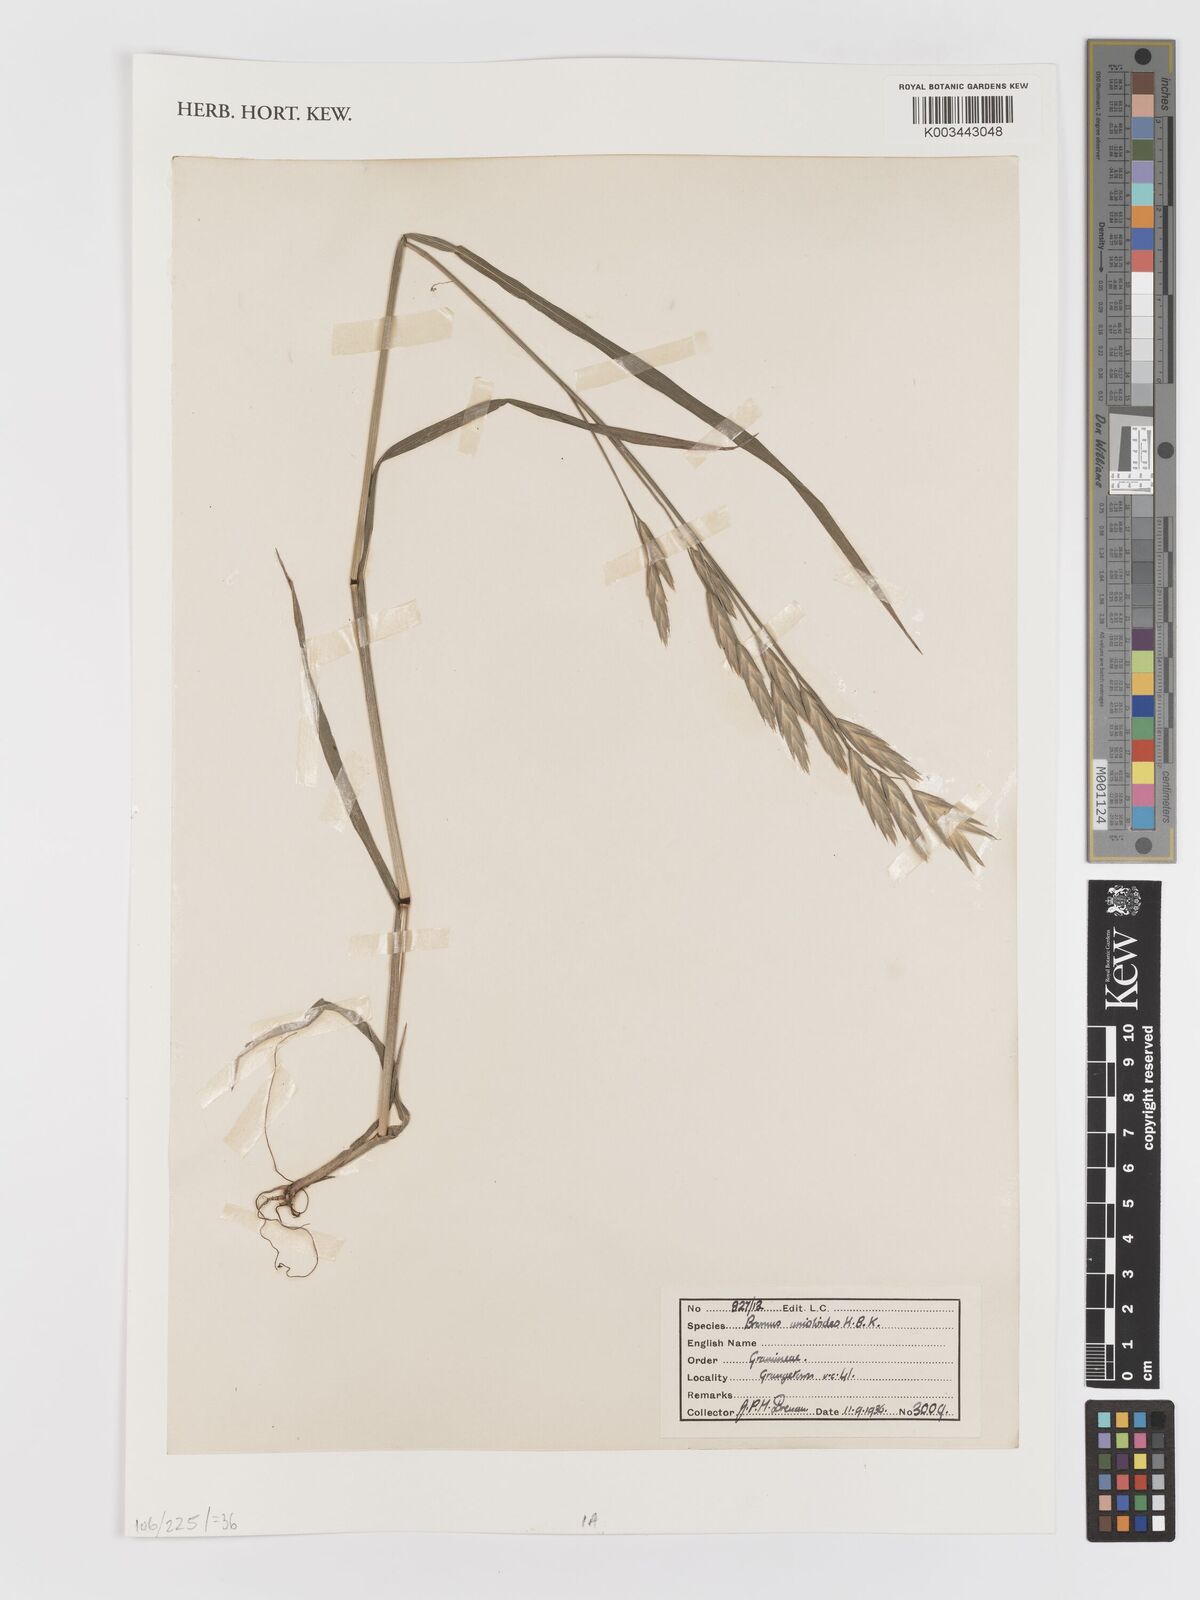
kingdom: Plantae
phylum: Tracheophyta
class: Liliopsida
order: Poales
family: Poaceae
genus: Bromus
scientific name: Bromus catharticus
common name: Rescuegrass
